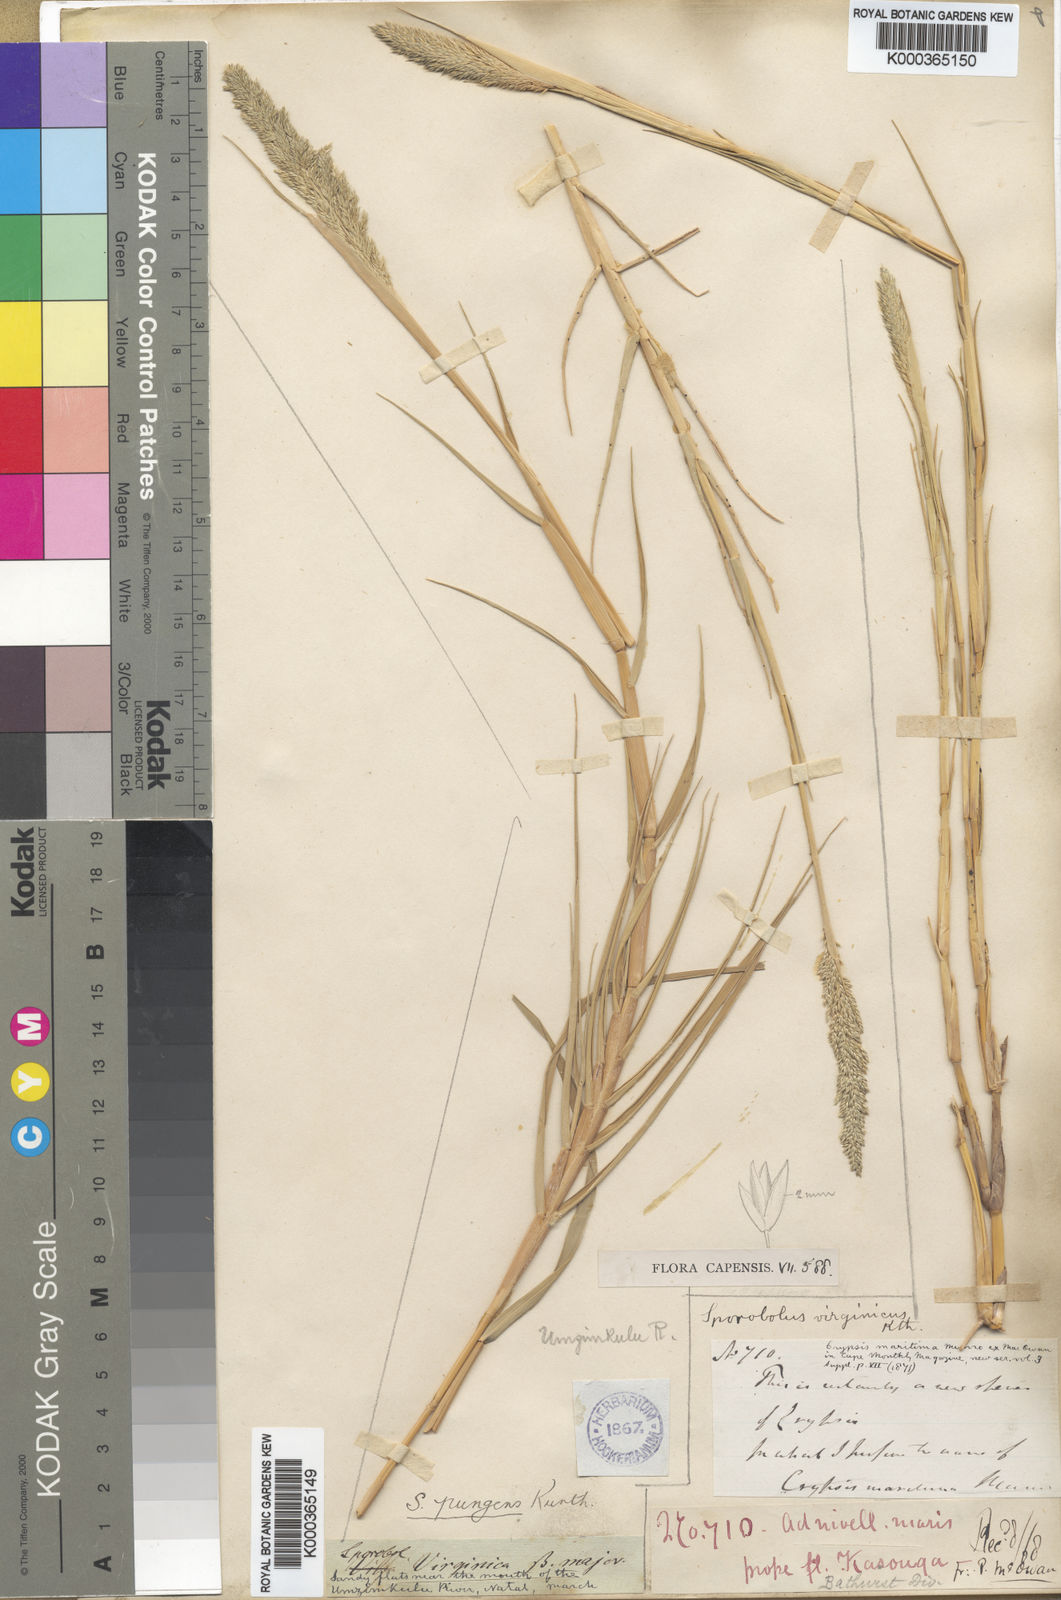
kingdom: Plantae
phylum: Tracheophyta
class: Liliopsida
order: Poales
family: Poaceae
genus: Sporobolus
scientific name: Sporobolus virginicus
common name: Beach dropseed
